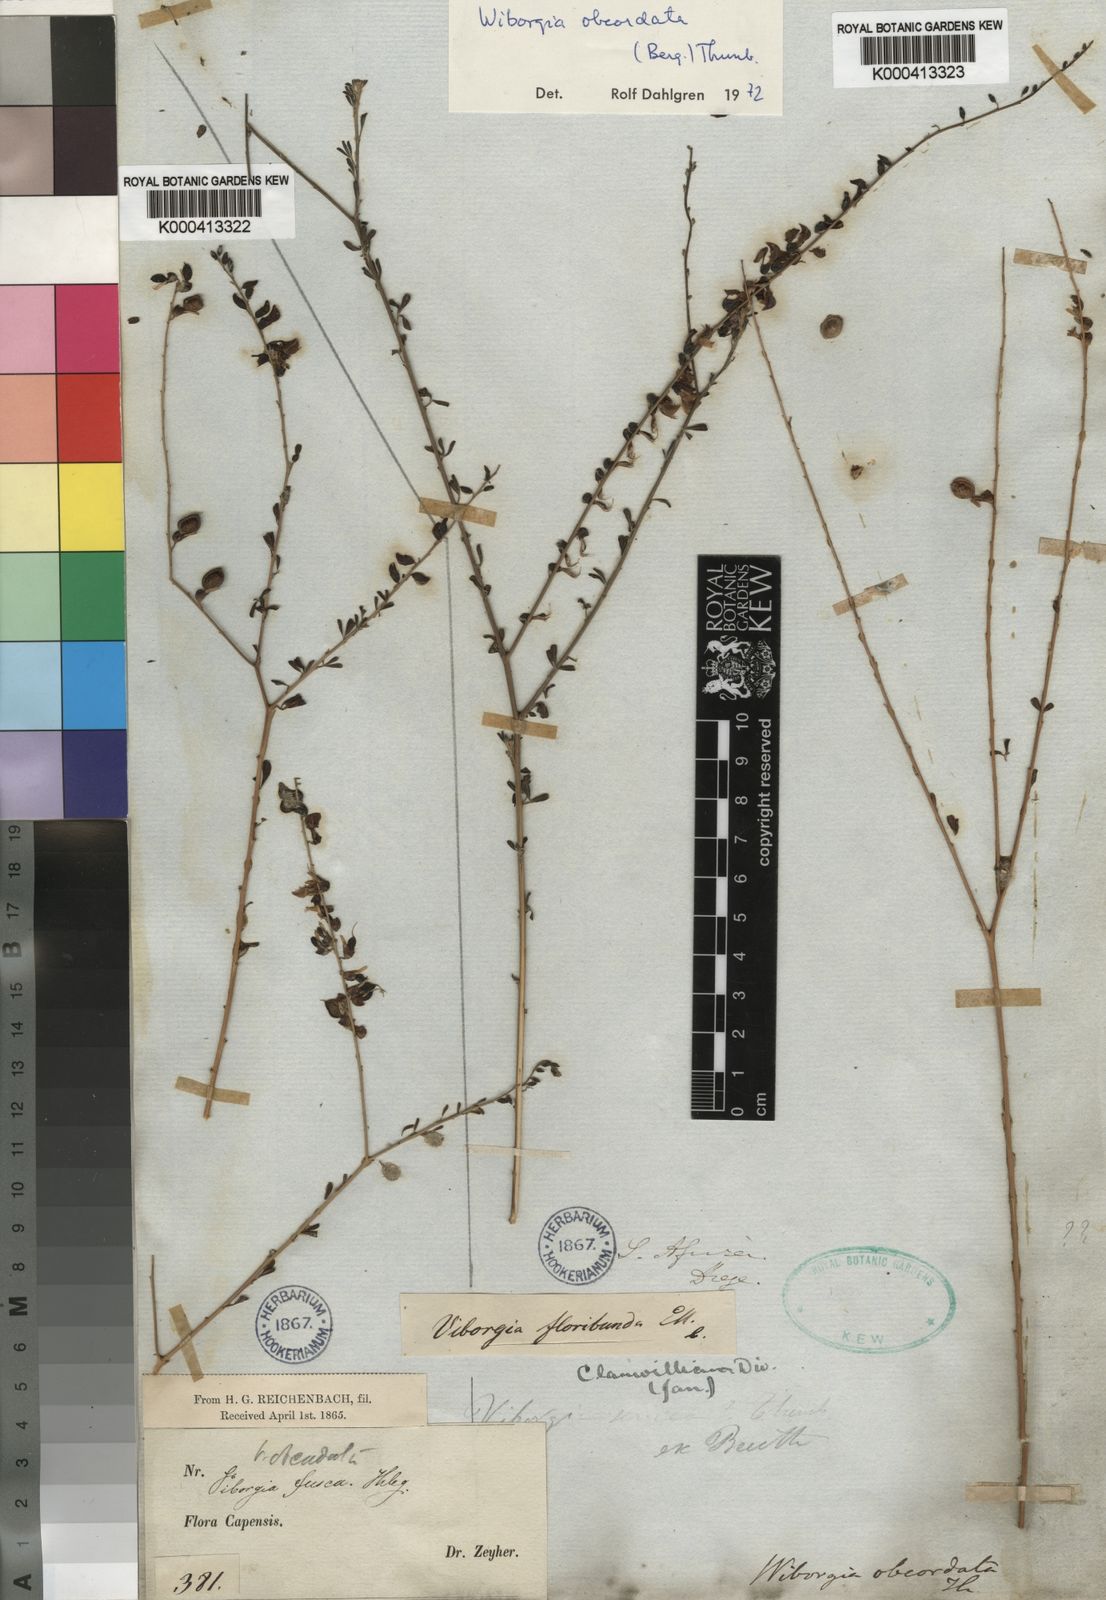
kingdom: Plantae
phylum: Tracheophyta
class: Magnoliopsida
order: Fabales
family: Fabaceae
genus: Wiborgia
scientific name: Wiborgia obcordata
